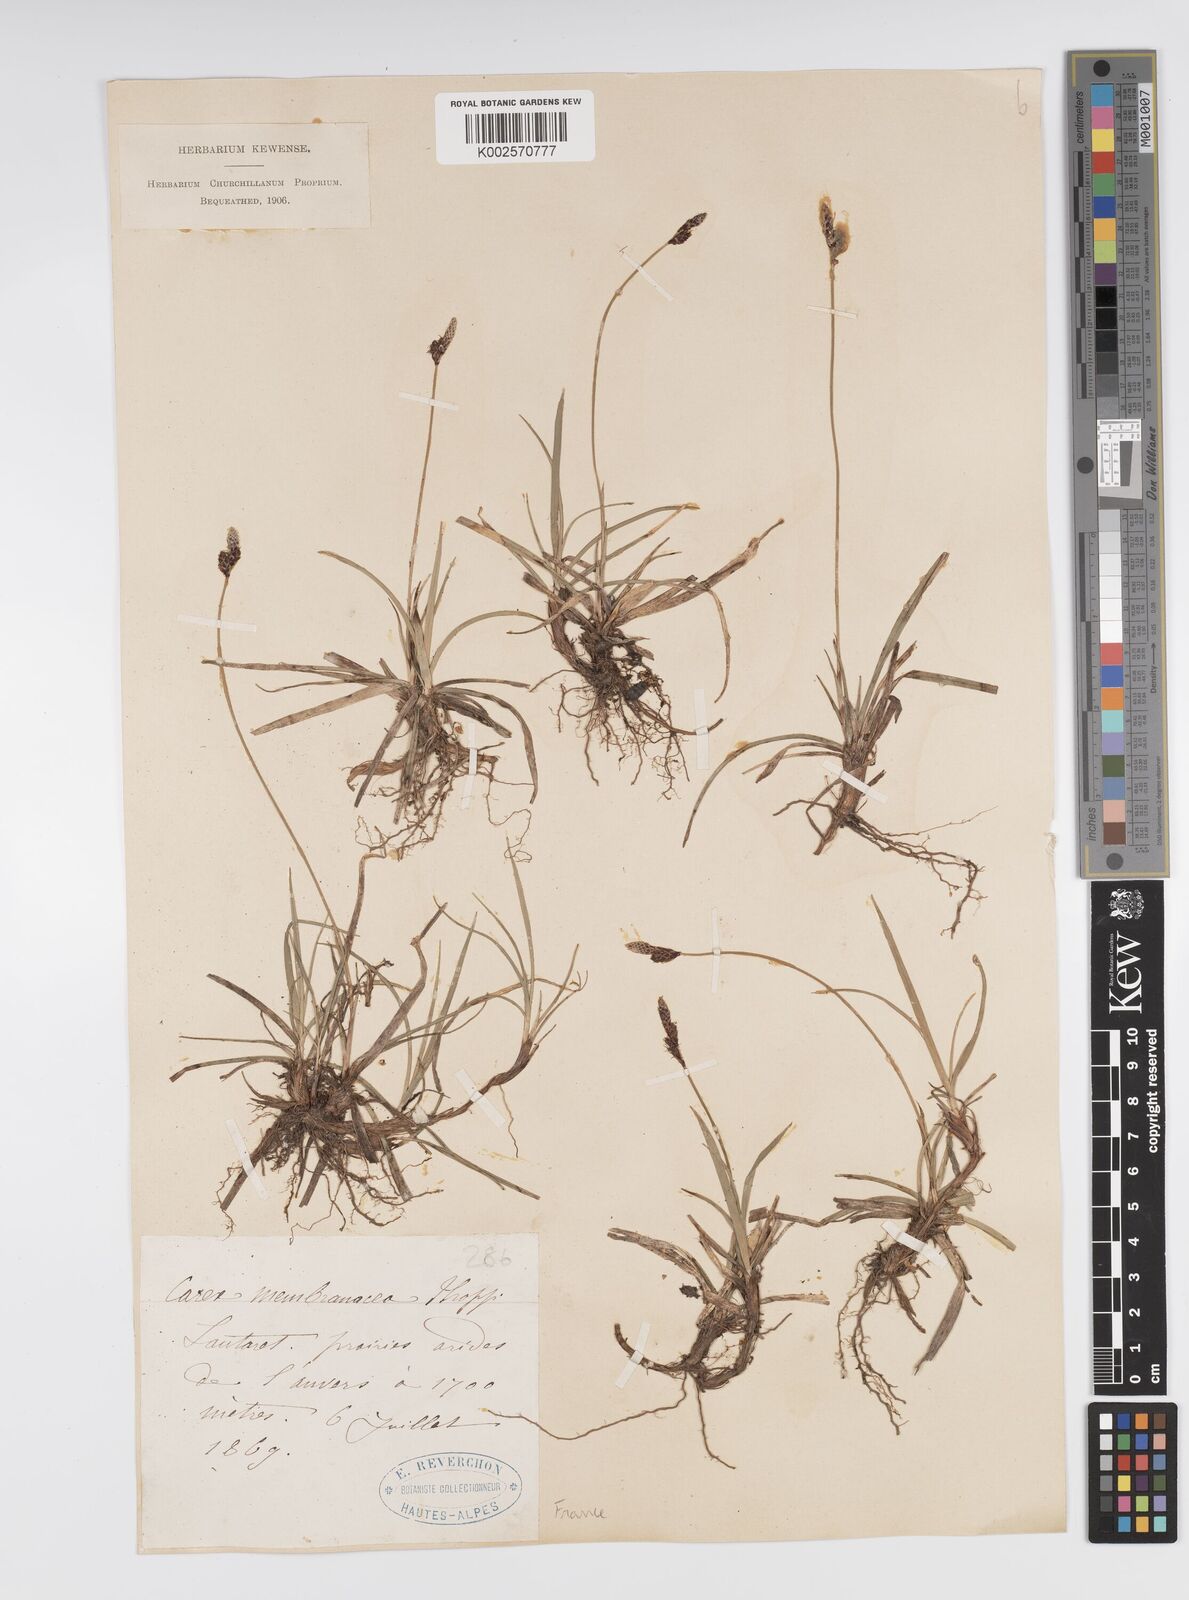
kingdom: Plantae
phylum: Tracheophyta
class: Liliopsida
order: Poales
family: Cyperaceae
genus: Carex
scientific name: Carex ericetorum
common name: Rare spring-sedge
